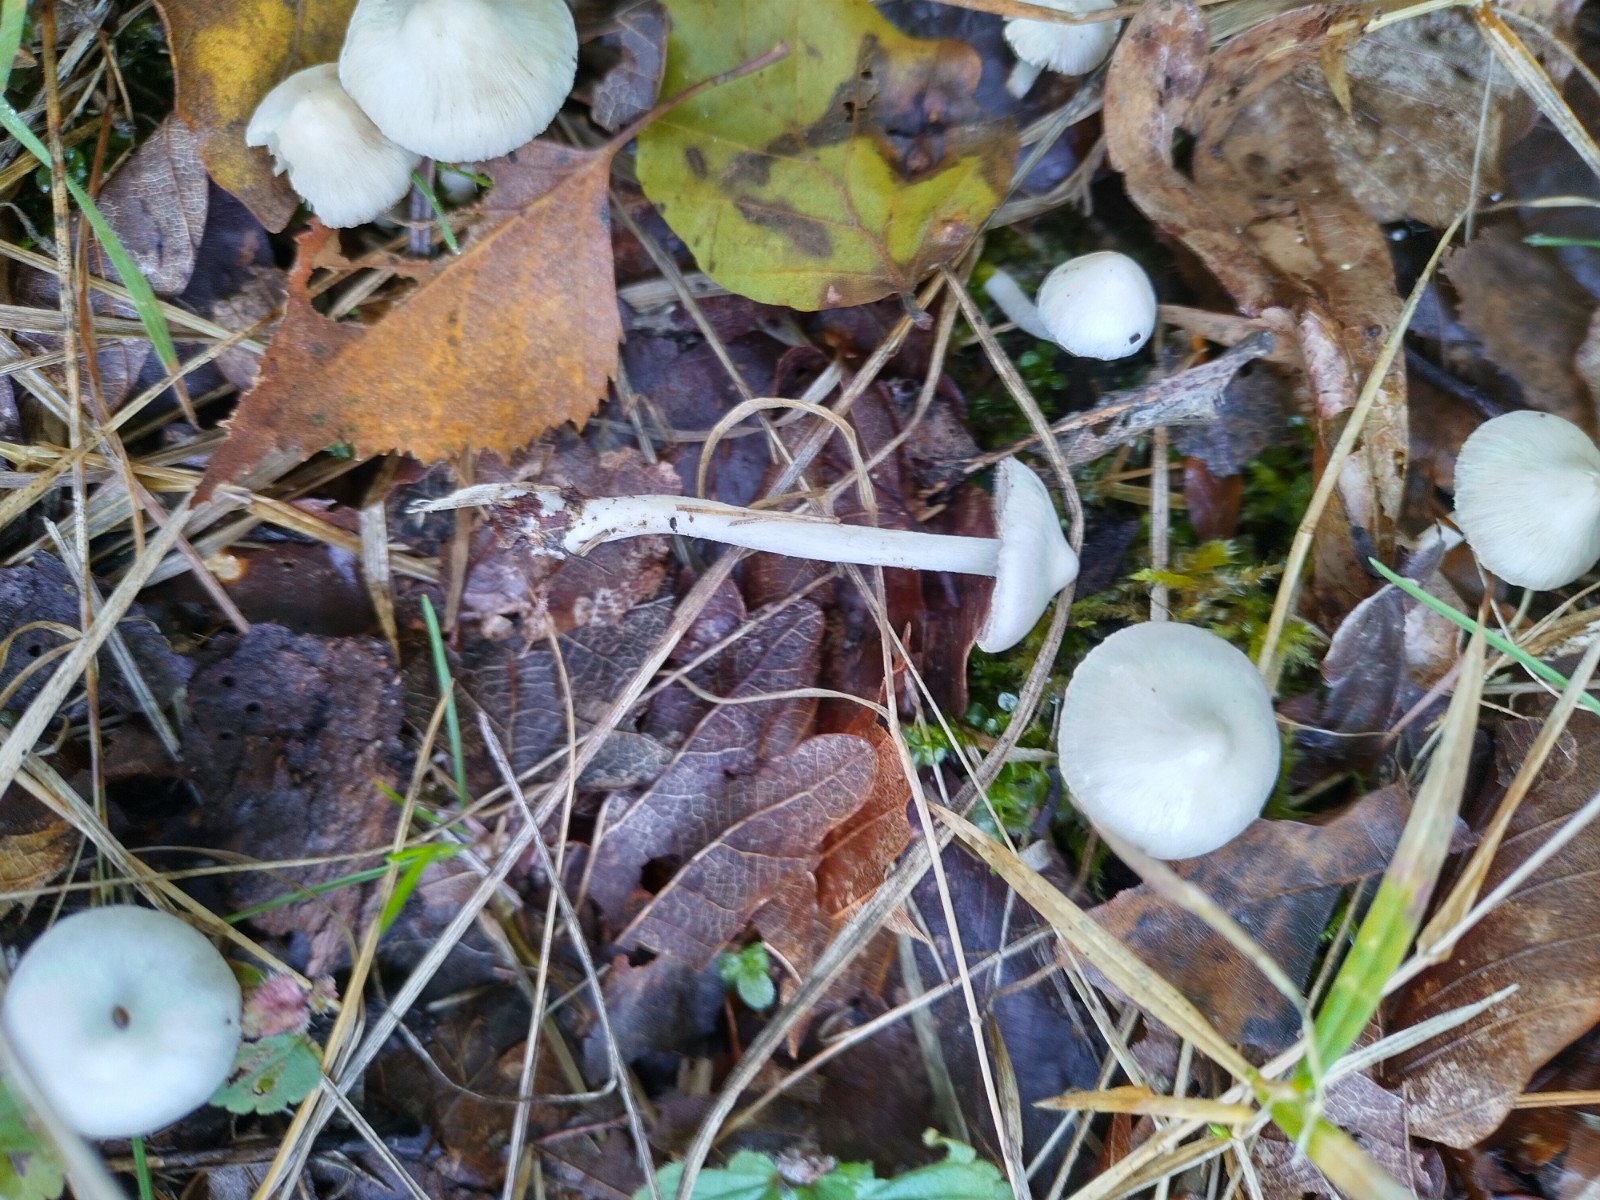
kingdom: Fungi
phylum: Basidiomycota
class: Agaricomycetes
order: Agaricales
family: Inocybaceae
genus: Inocybe
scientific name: Inocybe
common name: almindelig trævlhat
